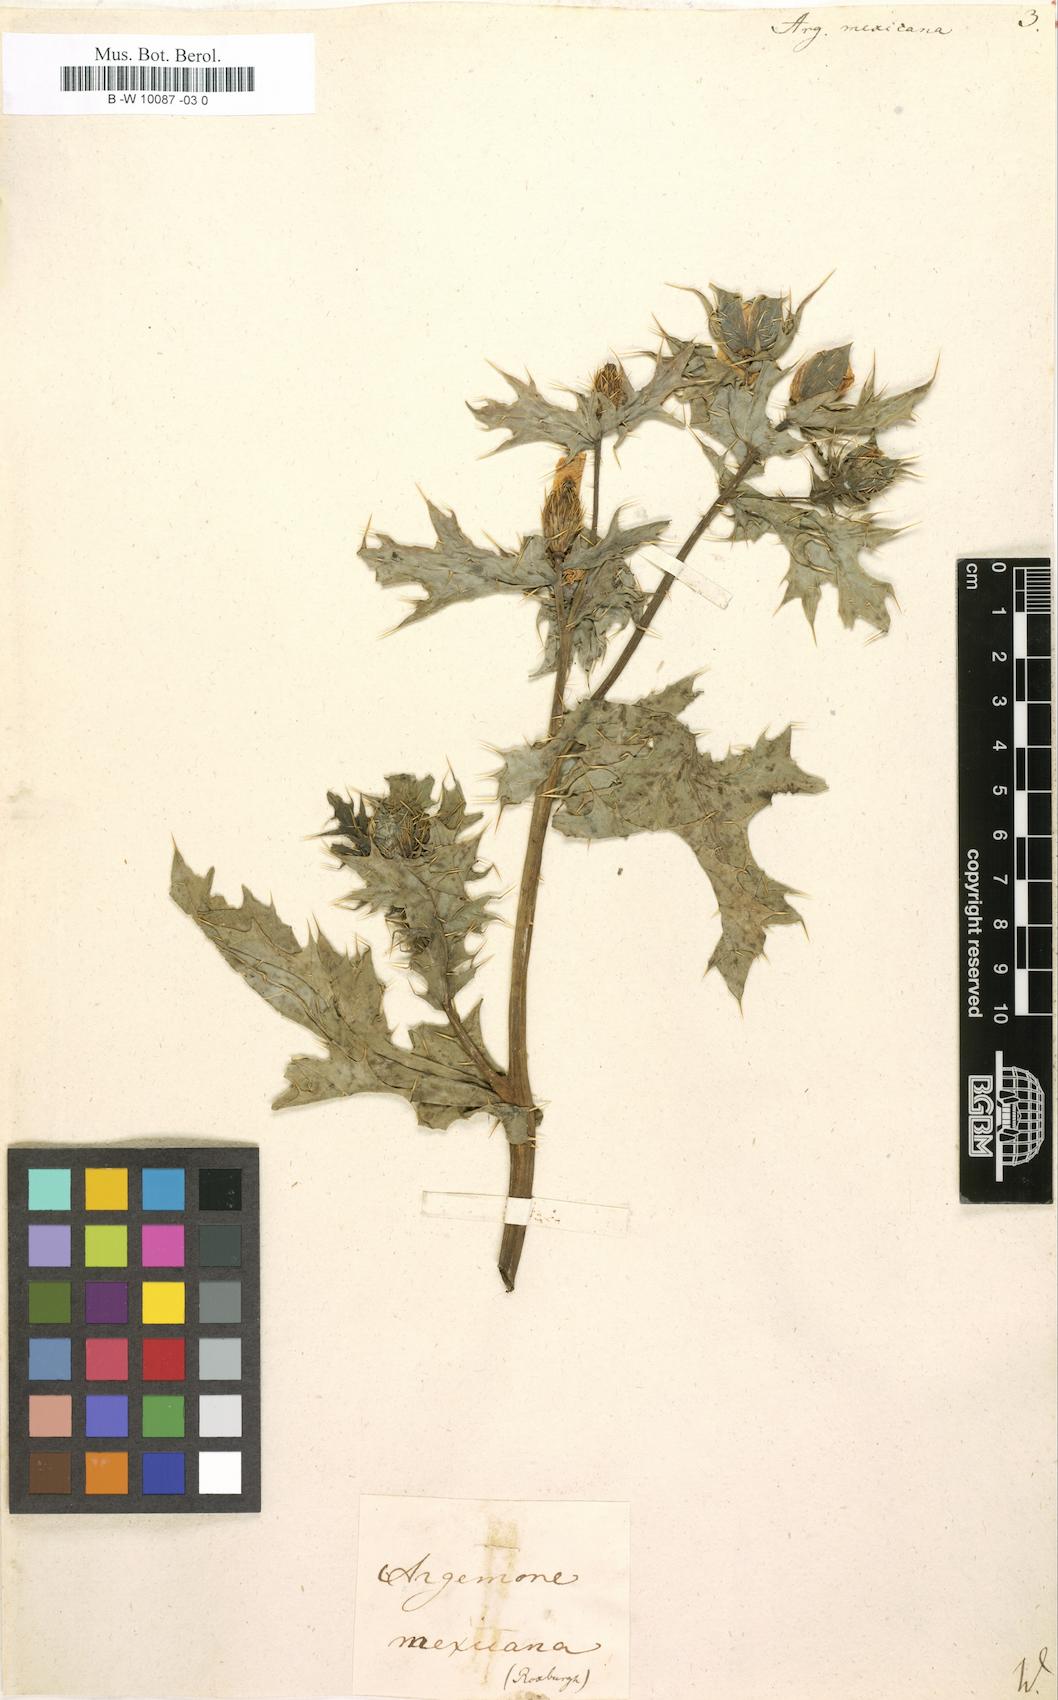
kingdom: Plantae
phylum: Tracheophyta
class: Magnoliopsida
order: Ranunculales
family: Papaveraceae
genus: Argemone
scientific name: Argemone mexicana
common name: Mexican poppy
